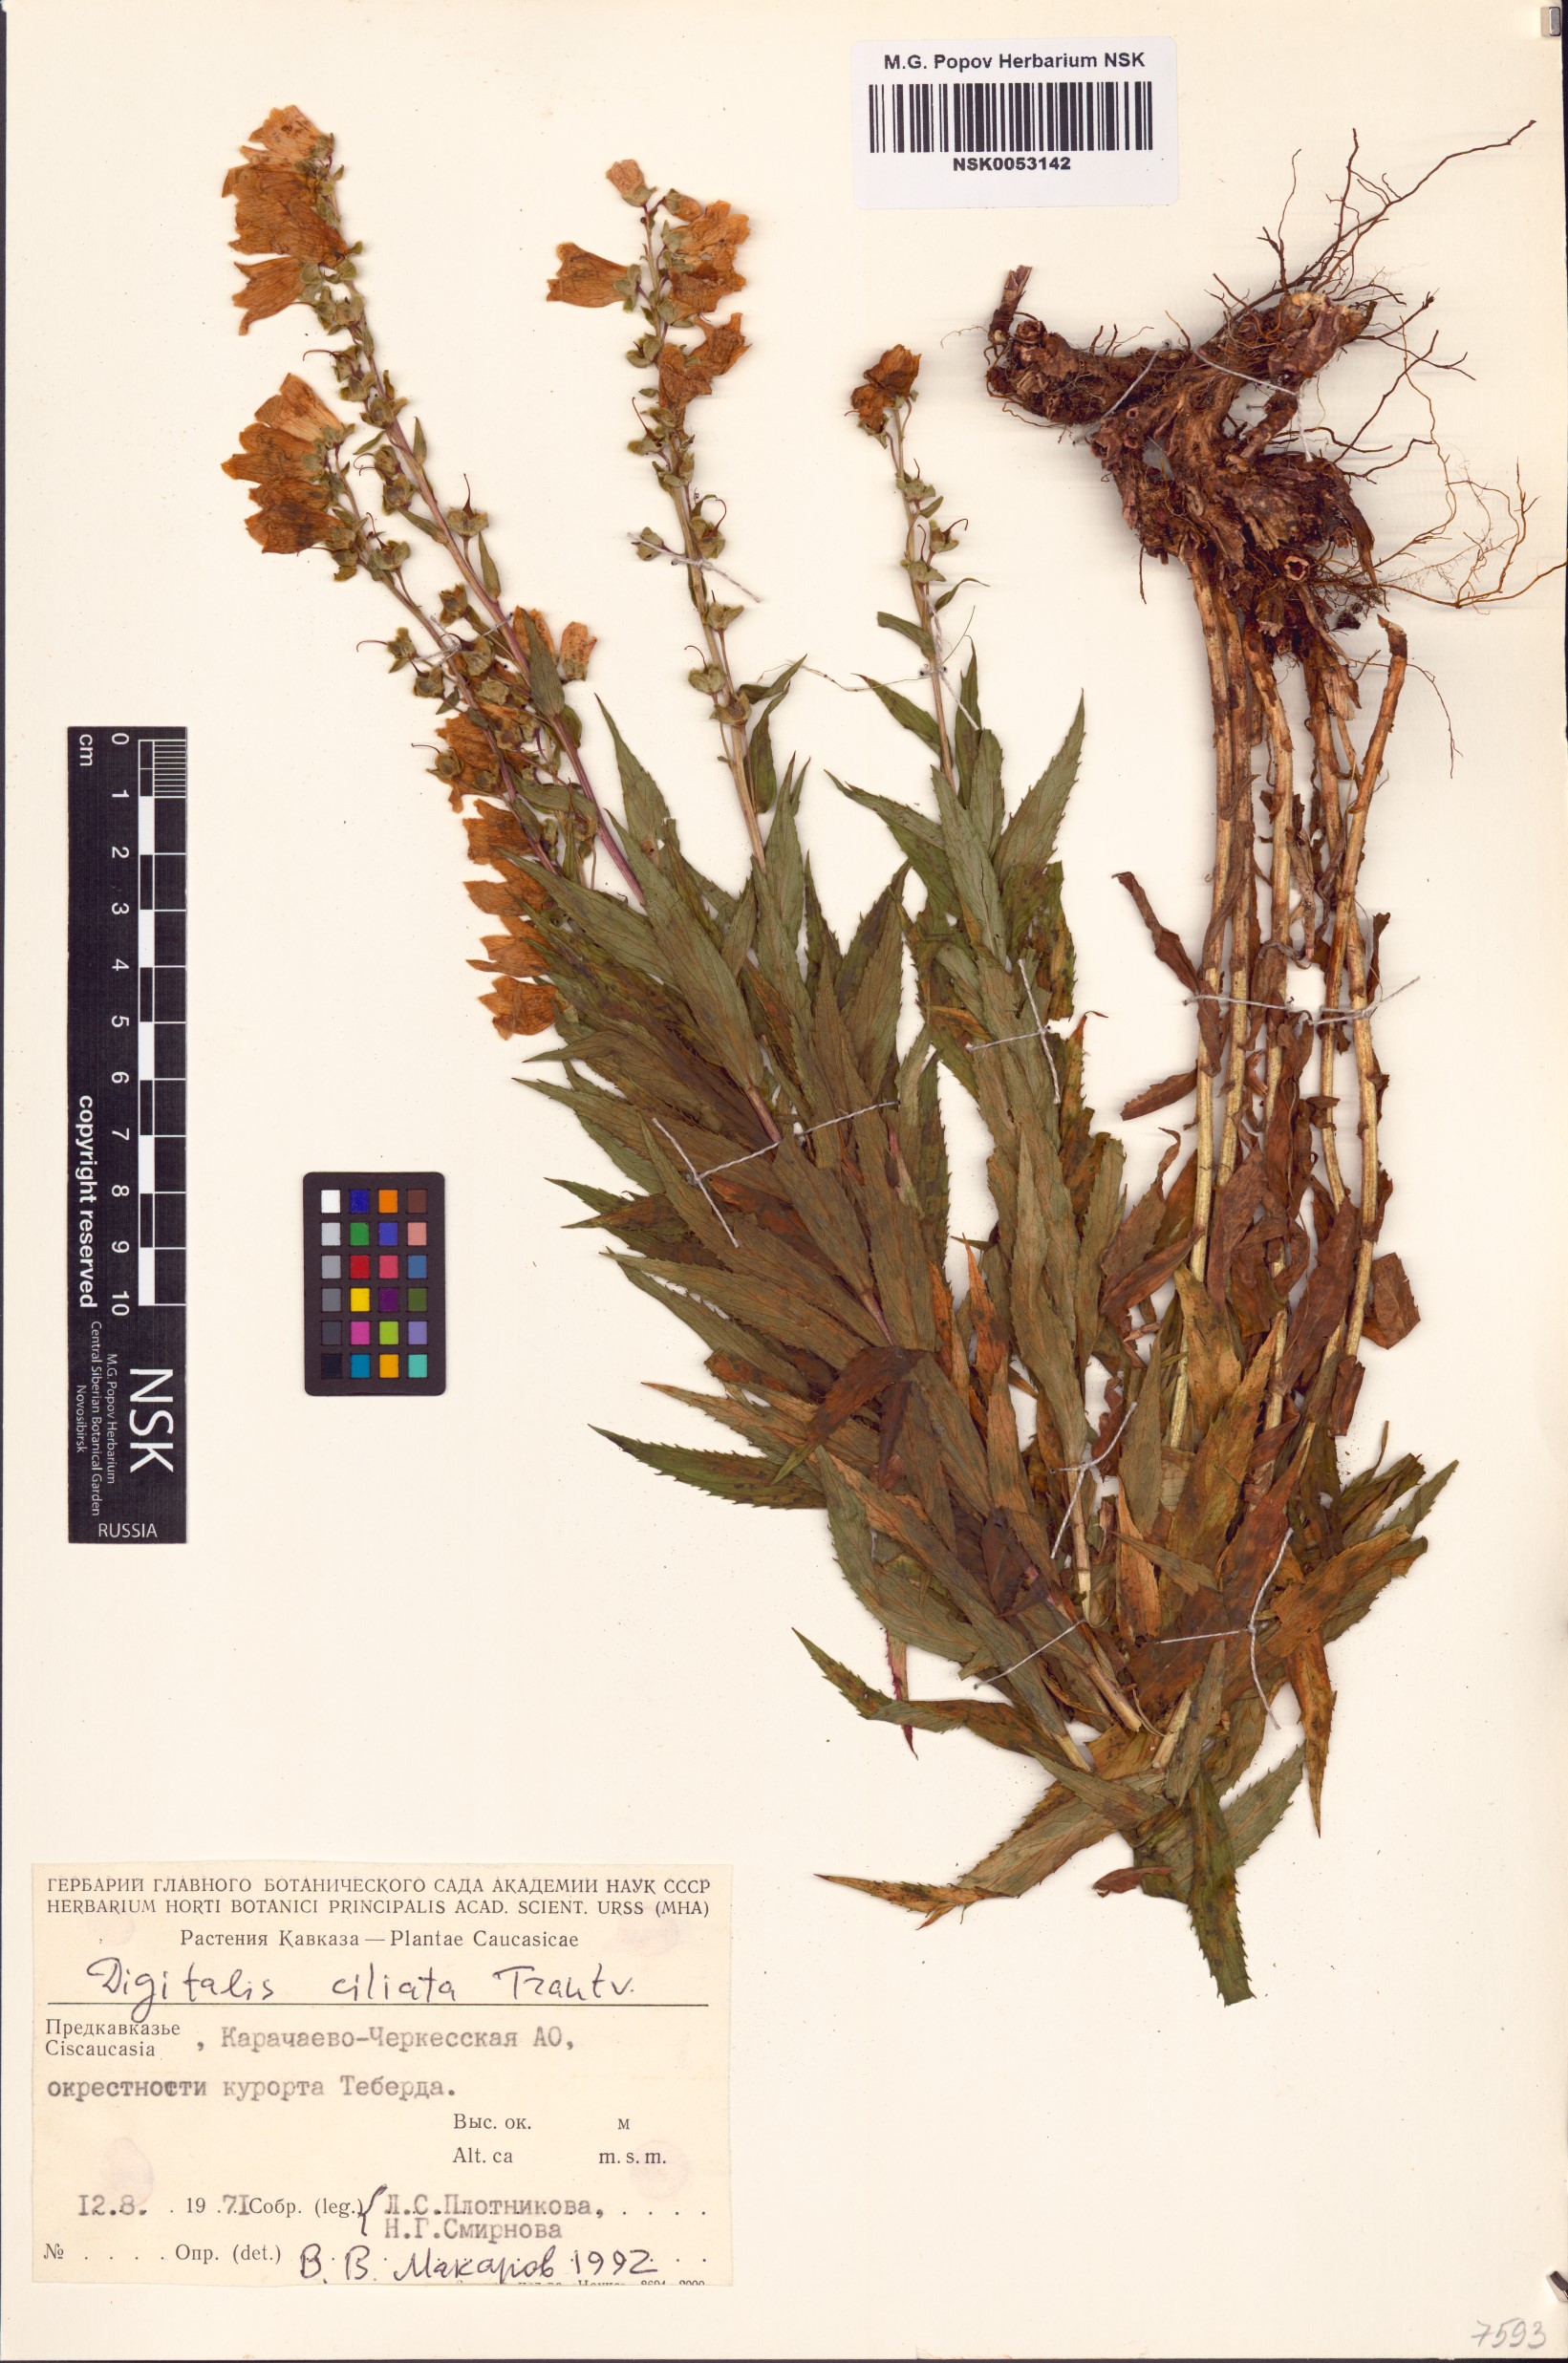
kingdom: Plantae
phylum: Tracheophyta
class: Magnoliopsida
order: Lamiales
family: Plantaginaceae
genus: Digitalis
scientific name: Digitalis ciliata
